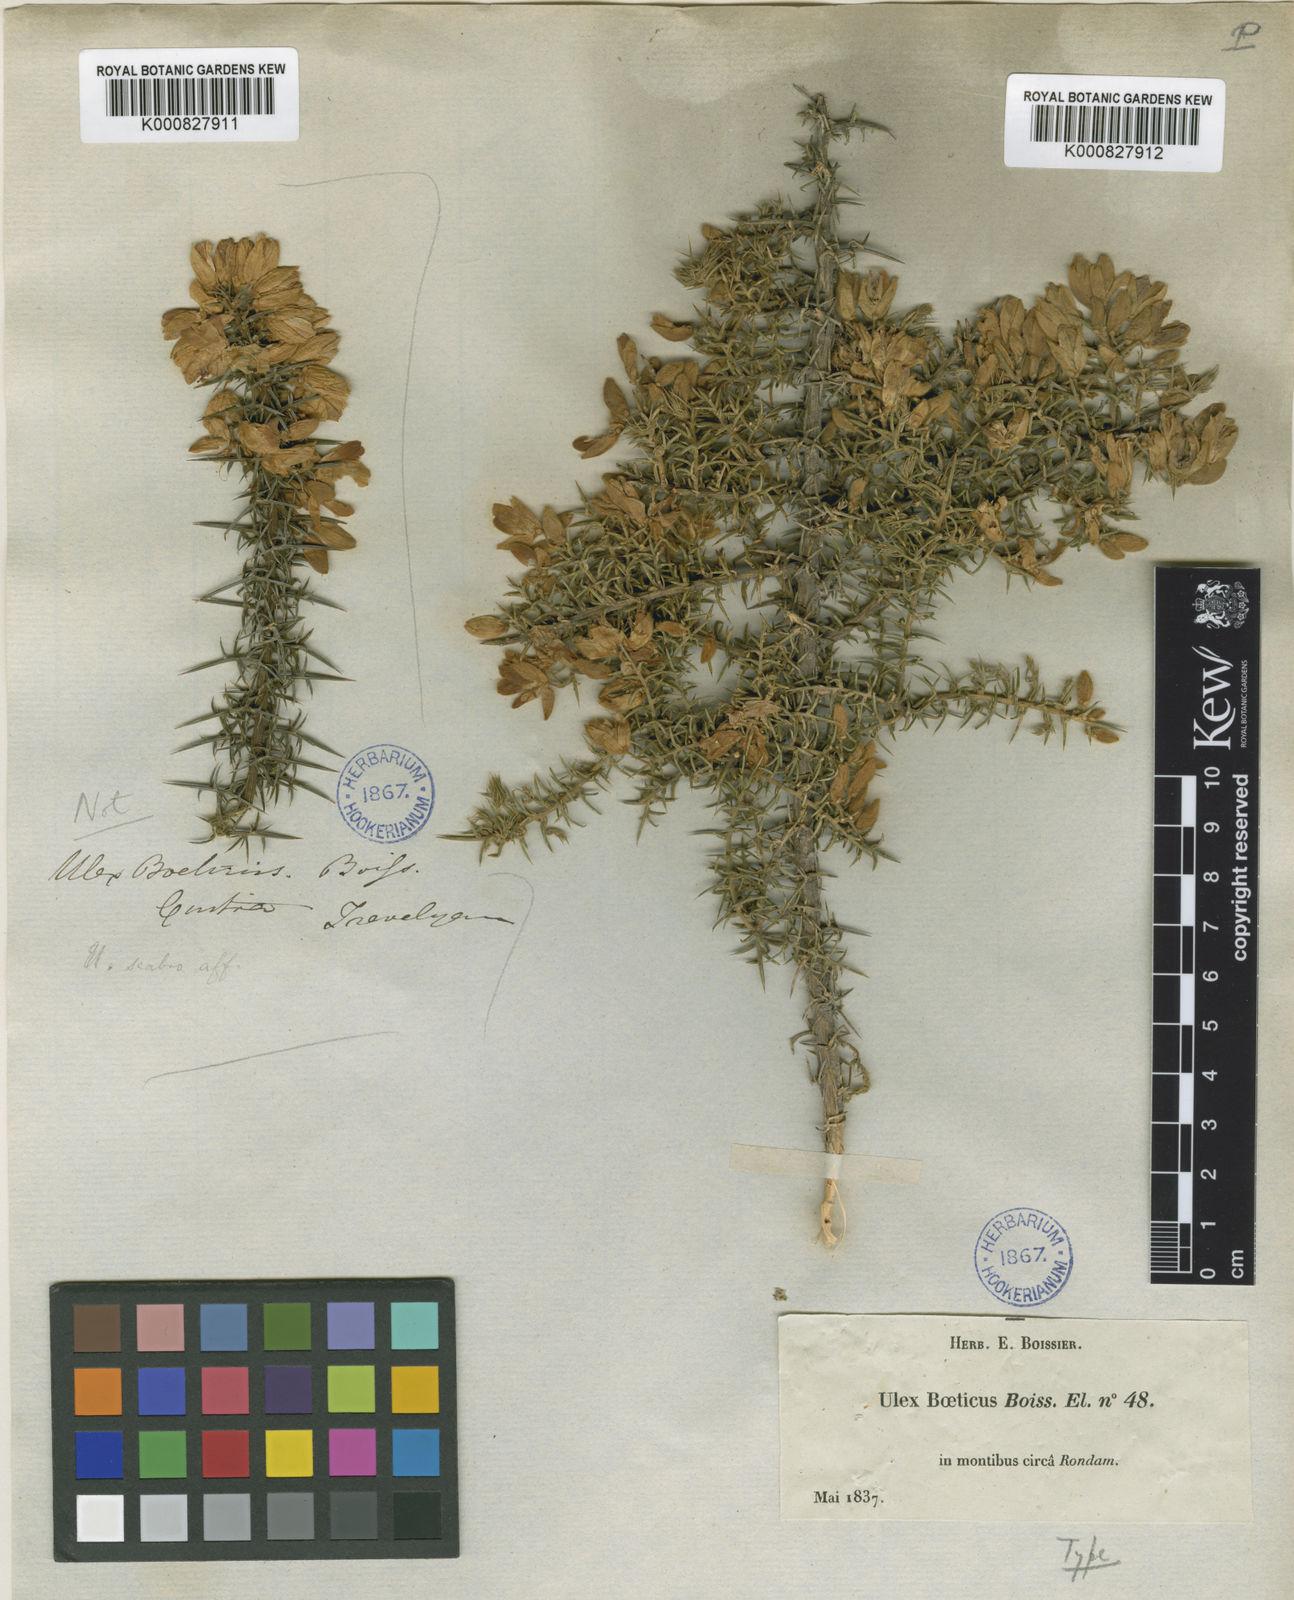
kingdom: Plantae
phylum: Tracheophyta
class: Magnoliopsida
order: Fabales
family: Fabaceae
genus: Ulex
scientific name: Ulex parviflorus
